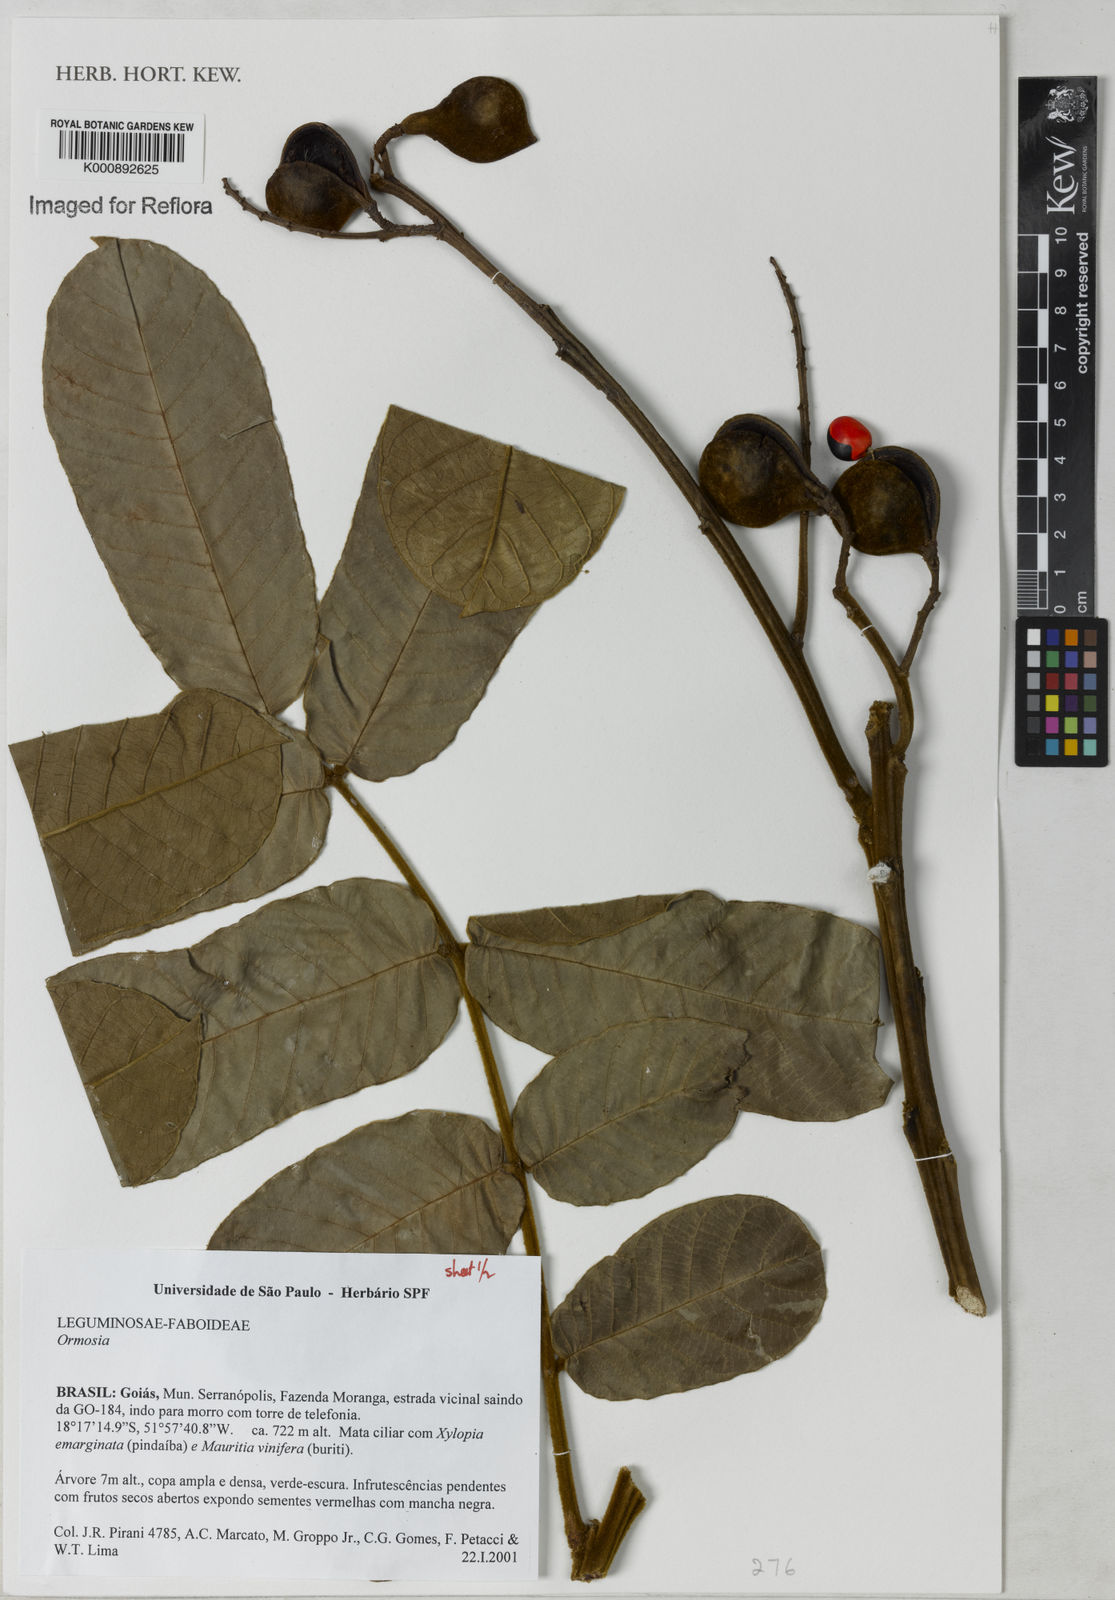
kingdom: Plantae
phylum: Tracheophyta
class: Magnoliopsida
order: Fabales
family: Fabaceae
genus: Ormosia
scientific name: Ormosia
